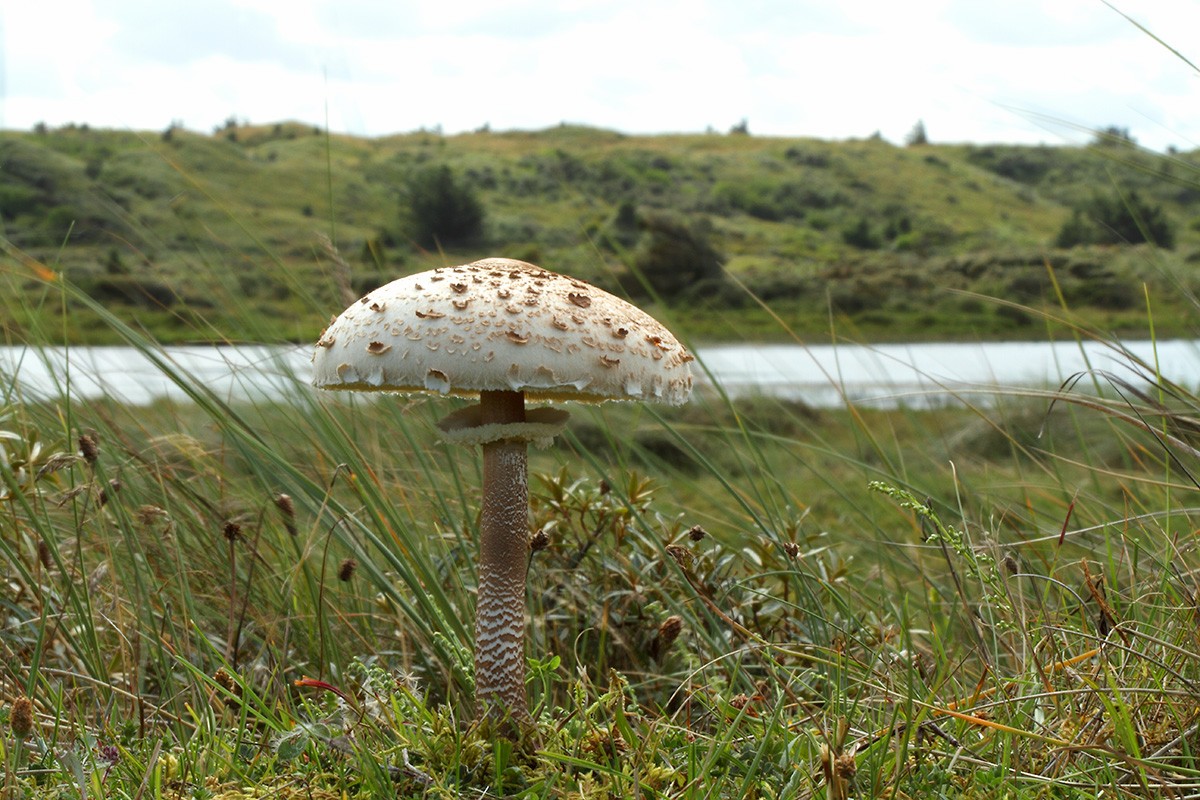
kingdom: Fungi
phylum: Basidiomycota
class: Agaricomycetes
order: Agaricales
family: Agaricaceae
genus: Macrolepiota
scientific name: Macrolepiota procera
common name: stor kæmpeparasolhat
